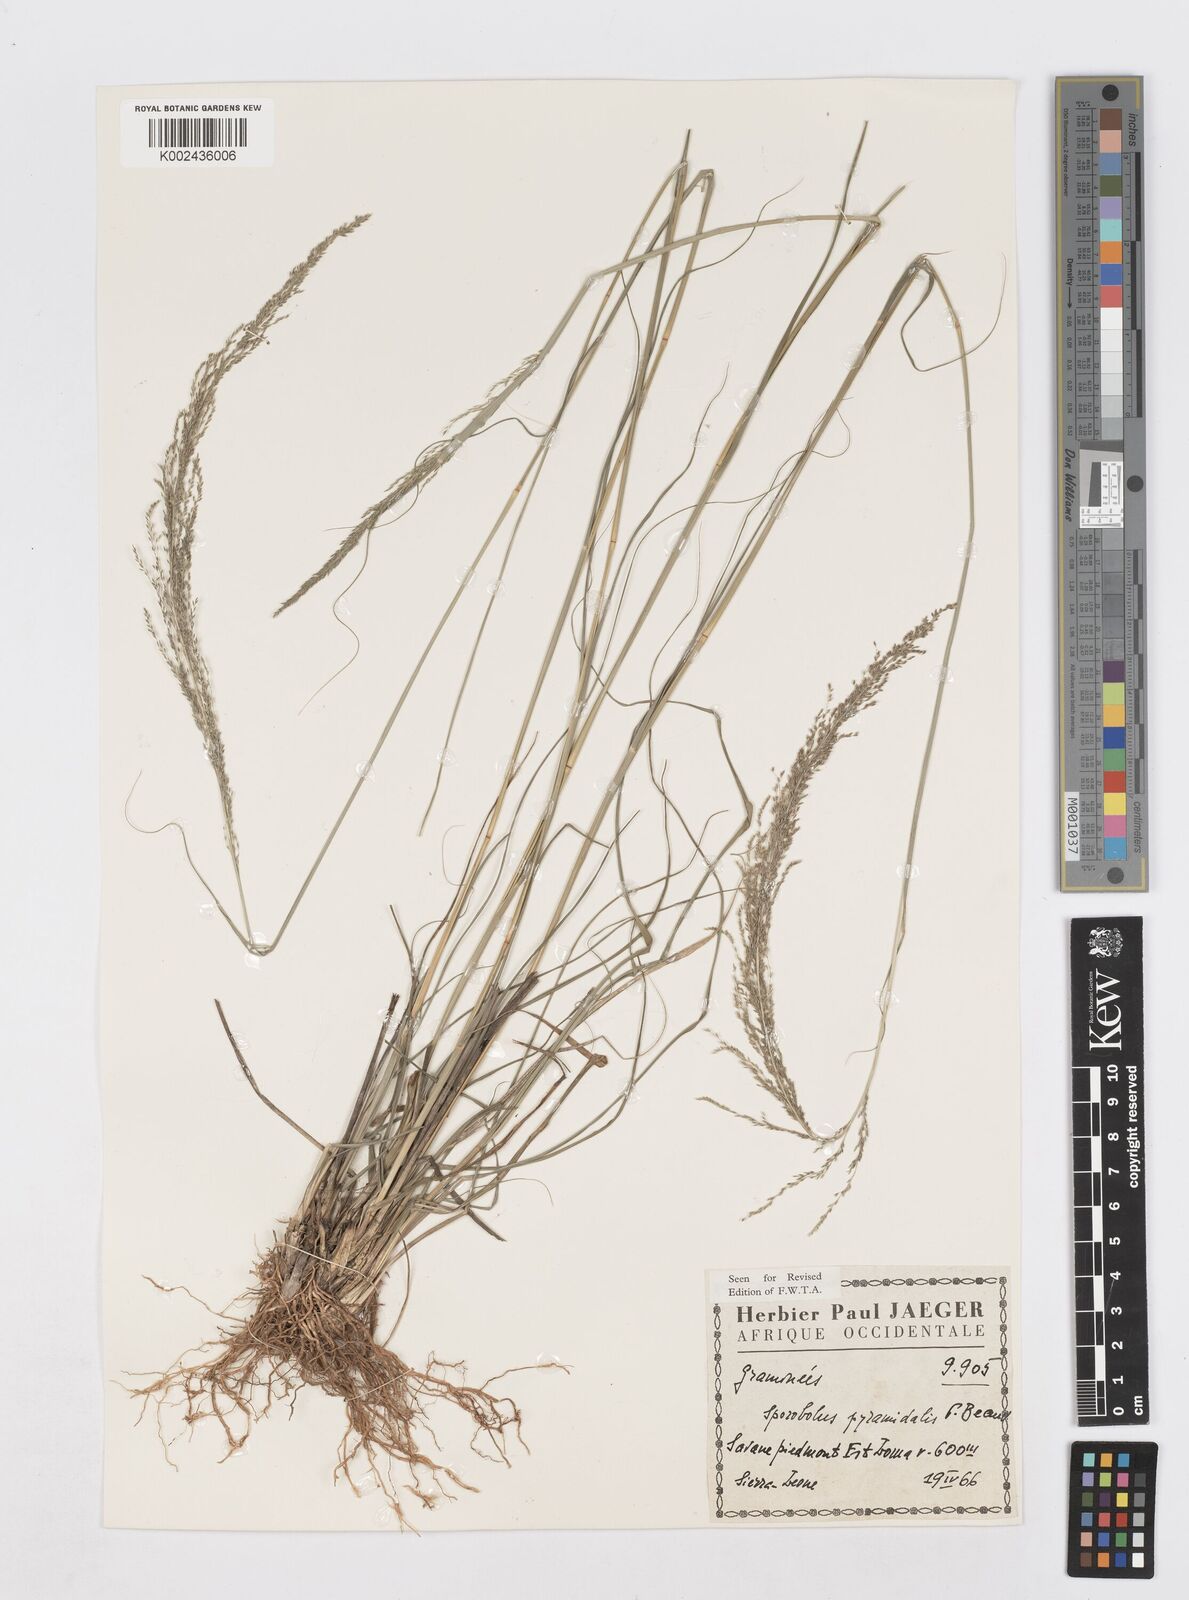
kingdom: Plantae
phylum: Tracheophyta
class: Liliopsida
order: Poales
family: Poaceae
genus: Sporobolus
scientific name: Sporobolus pyramidalis
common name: West indian dropseed
